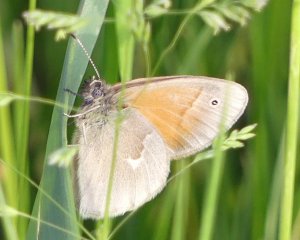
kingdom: Animalia
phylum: Arthropoda
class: Insecta
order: Lepidoptera
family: Nymphalidae
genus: Coenonympha
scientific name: Coenonympha tullia
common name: Large Heath
